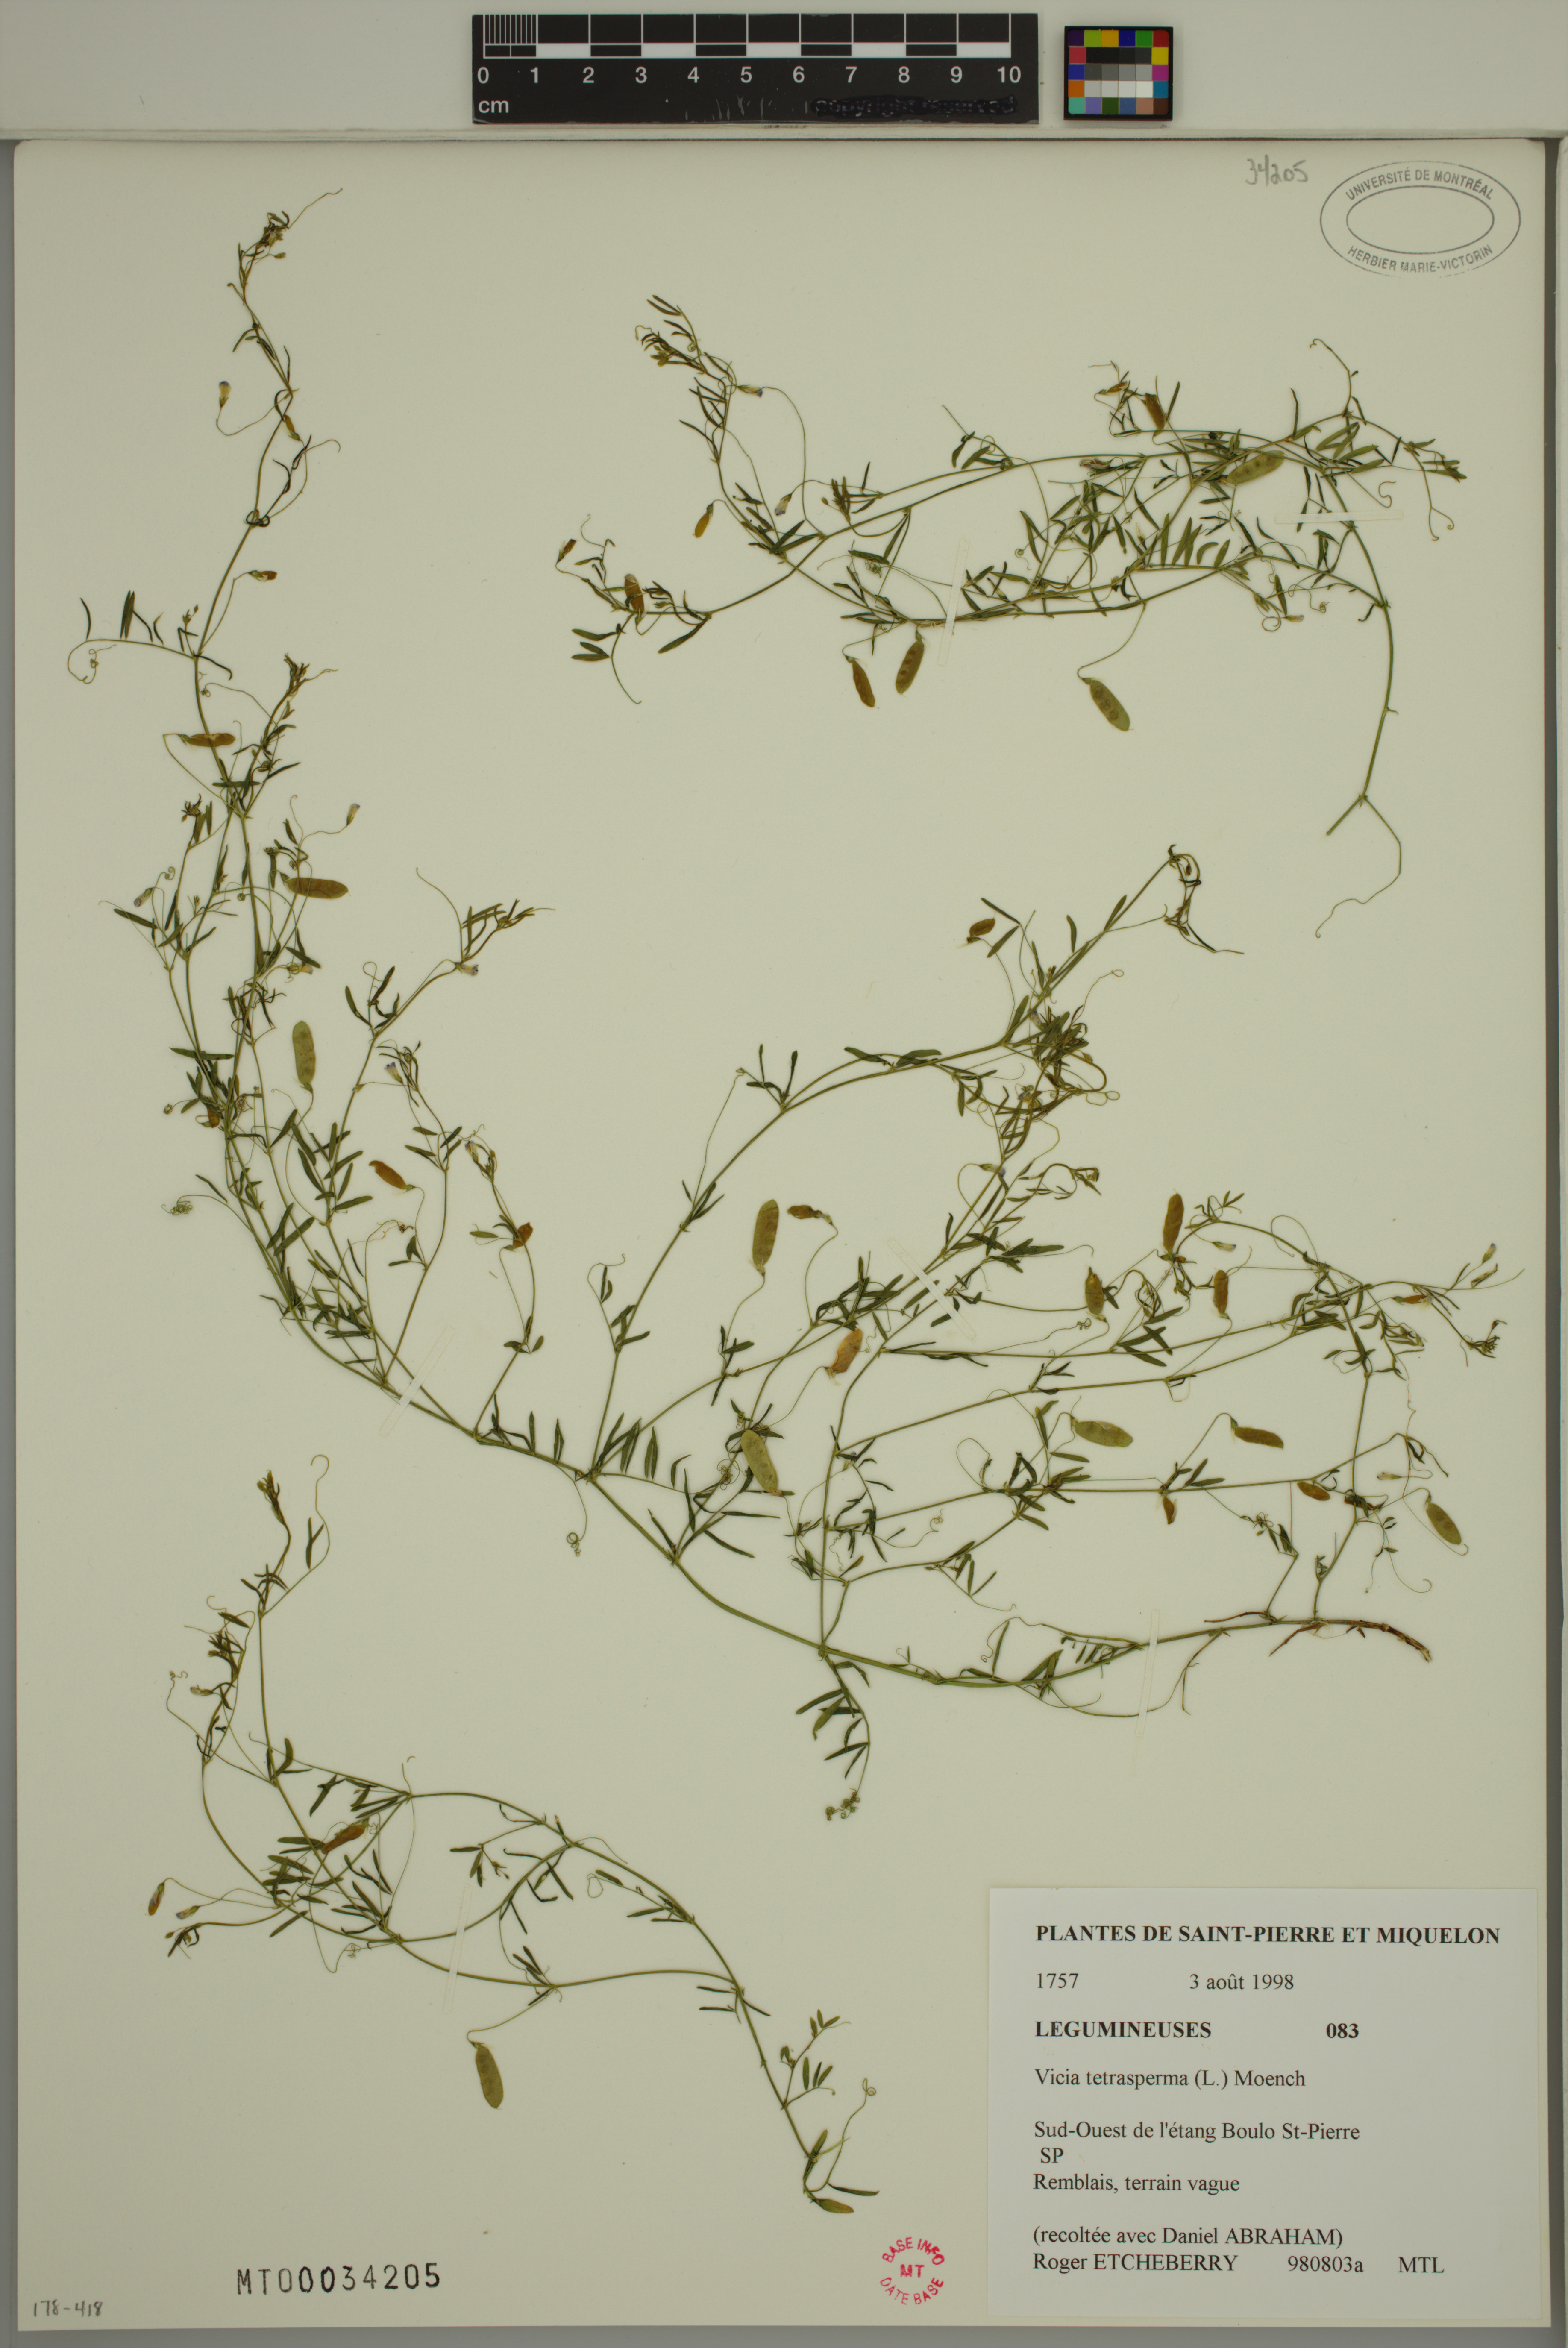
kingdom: Plantae
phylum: Tracheophyta
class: Magnoliopsida
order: Fabales
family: Fabaceae
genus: Vicia
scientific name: Vicia tetrasperma
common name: Smooth tare
